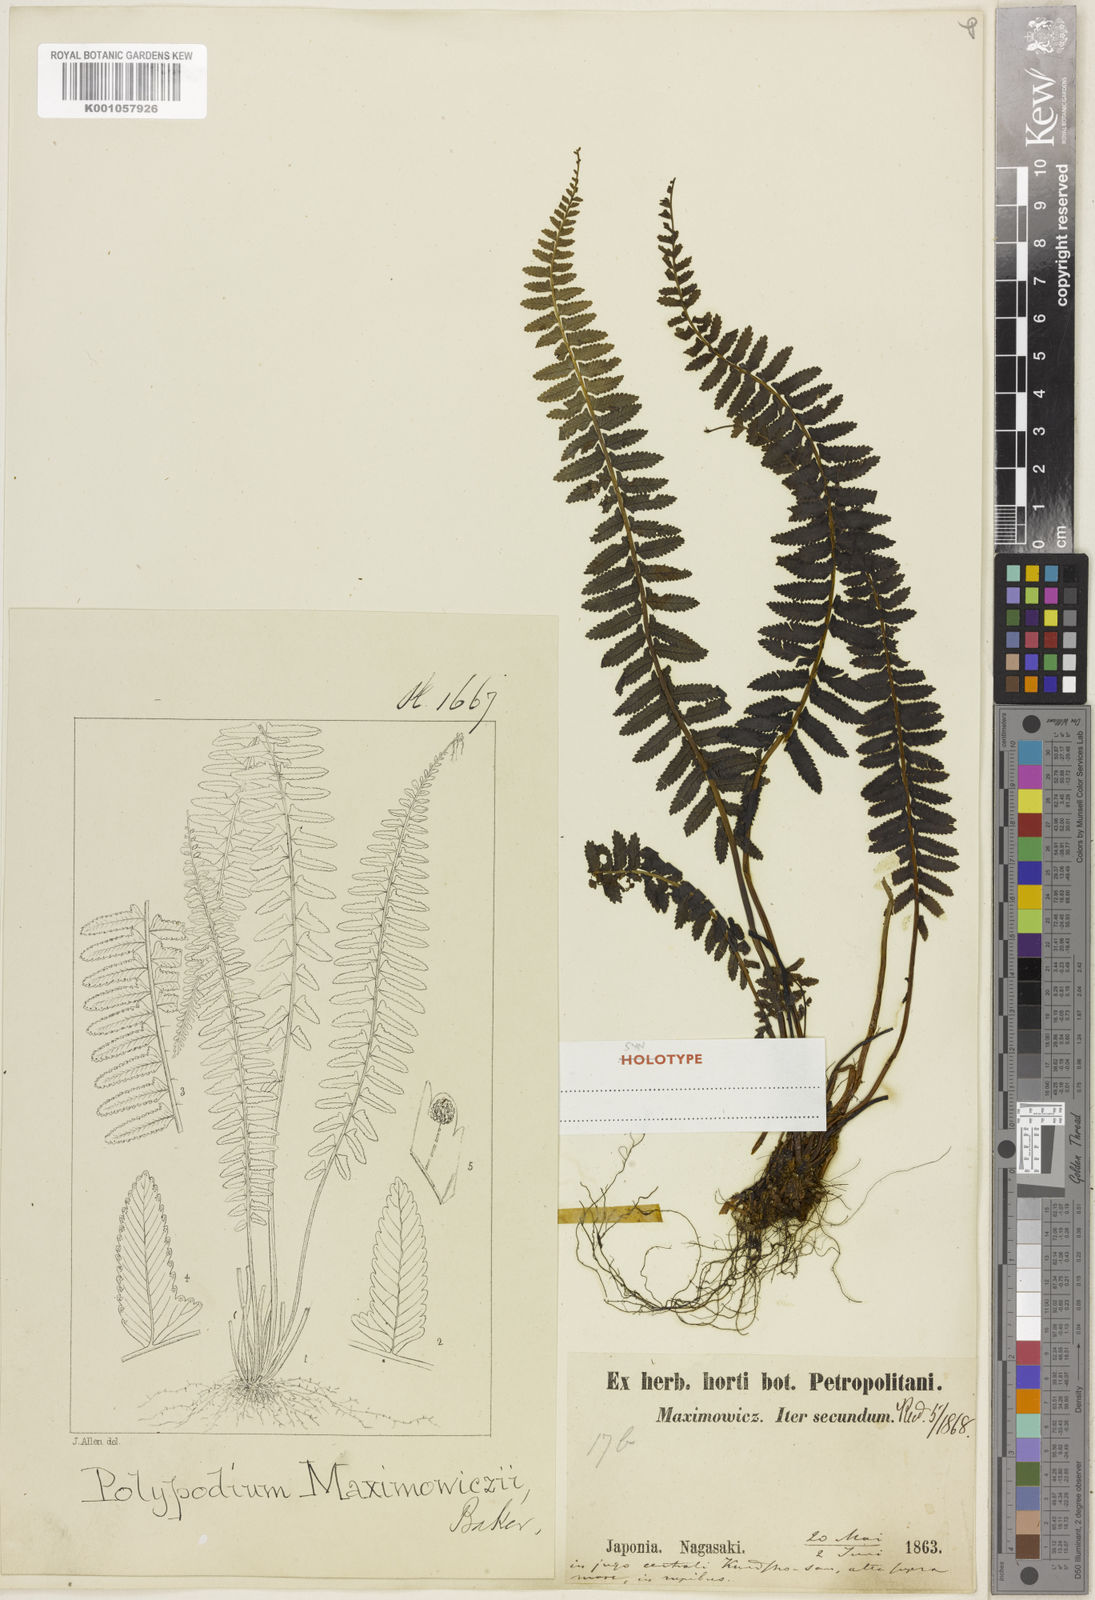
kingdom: Plantae
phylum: Tracheophyta
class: Polypodiopsida
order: Polypodiales
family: Dennstaedtiaceae
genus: Monachosorum
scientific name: Monachosorum maximowiczii
